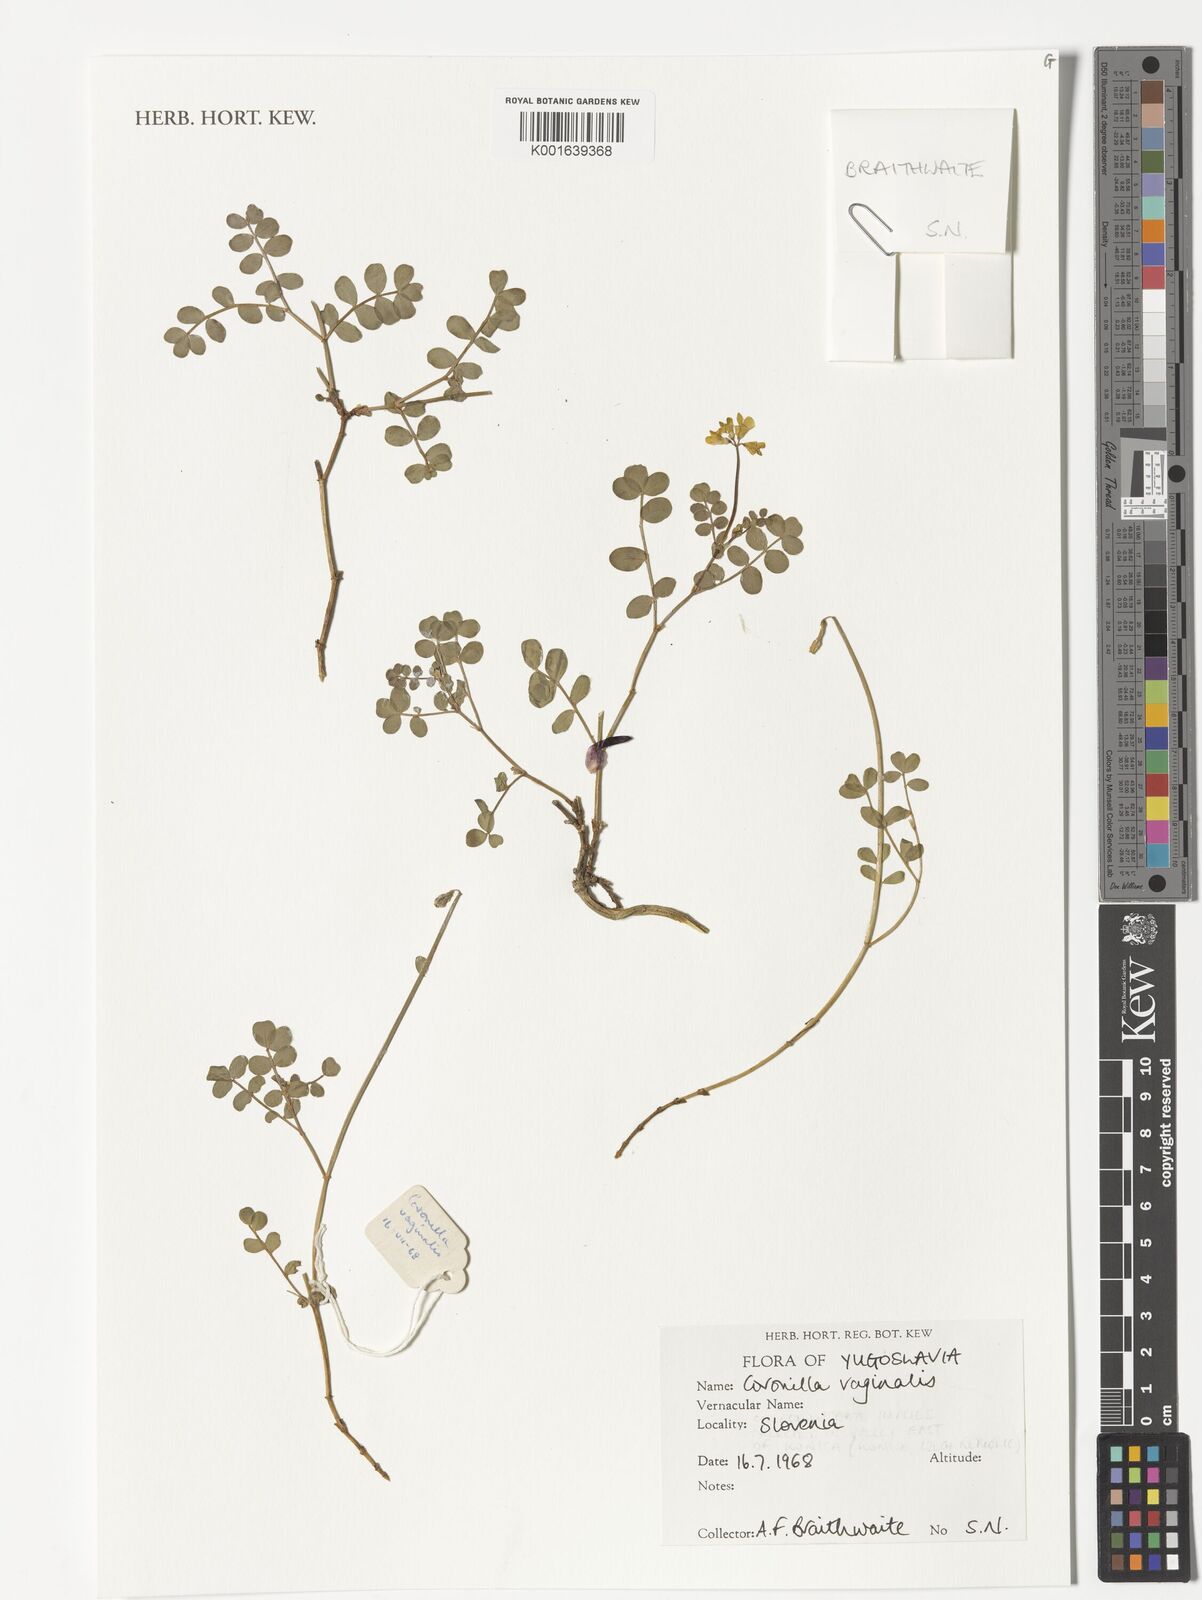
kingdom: Plantae
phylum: Tracheophyta
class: Magnoliopsida
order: Fabales
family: Fabaceae
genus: Coronilla
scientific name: Coronilla vaginalis
